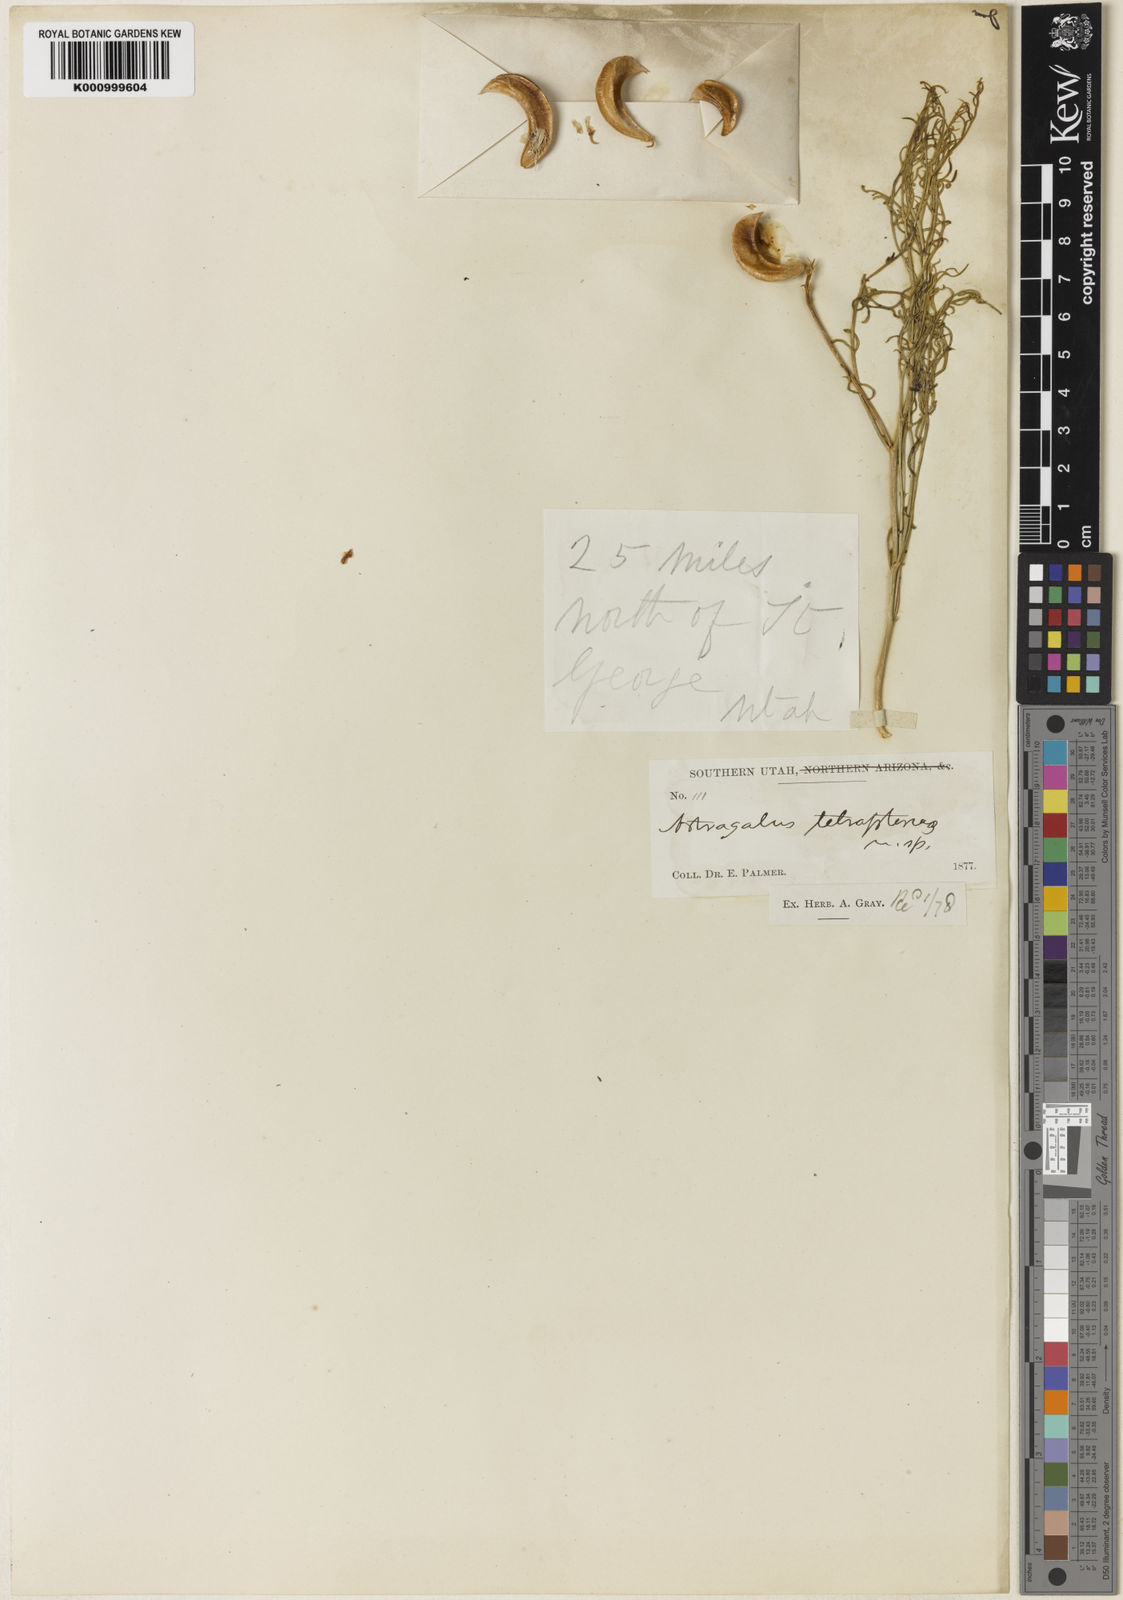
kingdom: Plantae
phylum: Tracheophyta
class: Magnoliopsida
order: Fabales
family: Fabaceae
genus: Astragalus
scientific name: Astragalus tetrapterus
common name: Four-wing milk-vetch
